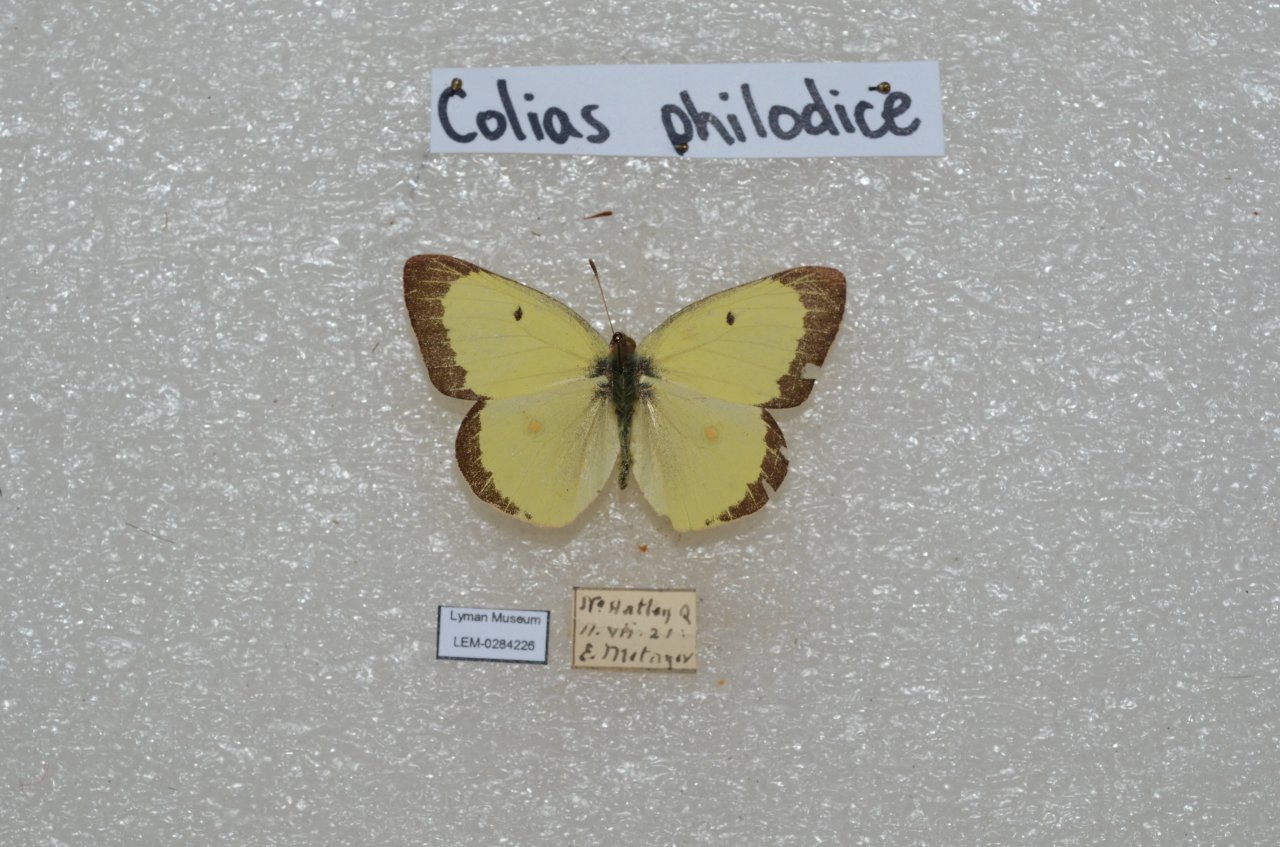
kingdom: Animalia
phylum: Arthropoda
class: Insecta
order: Lepidoptera
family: Pieridae
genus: Colias
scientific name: Colias philodice
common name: Clouded Sulphur
